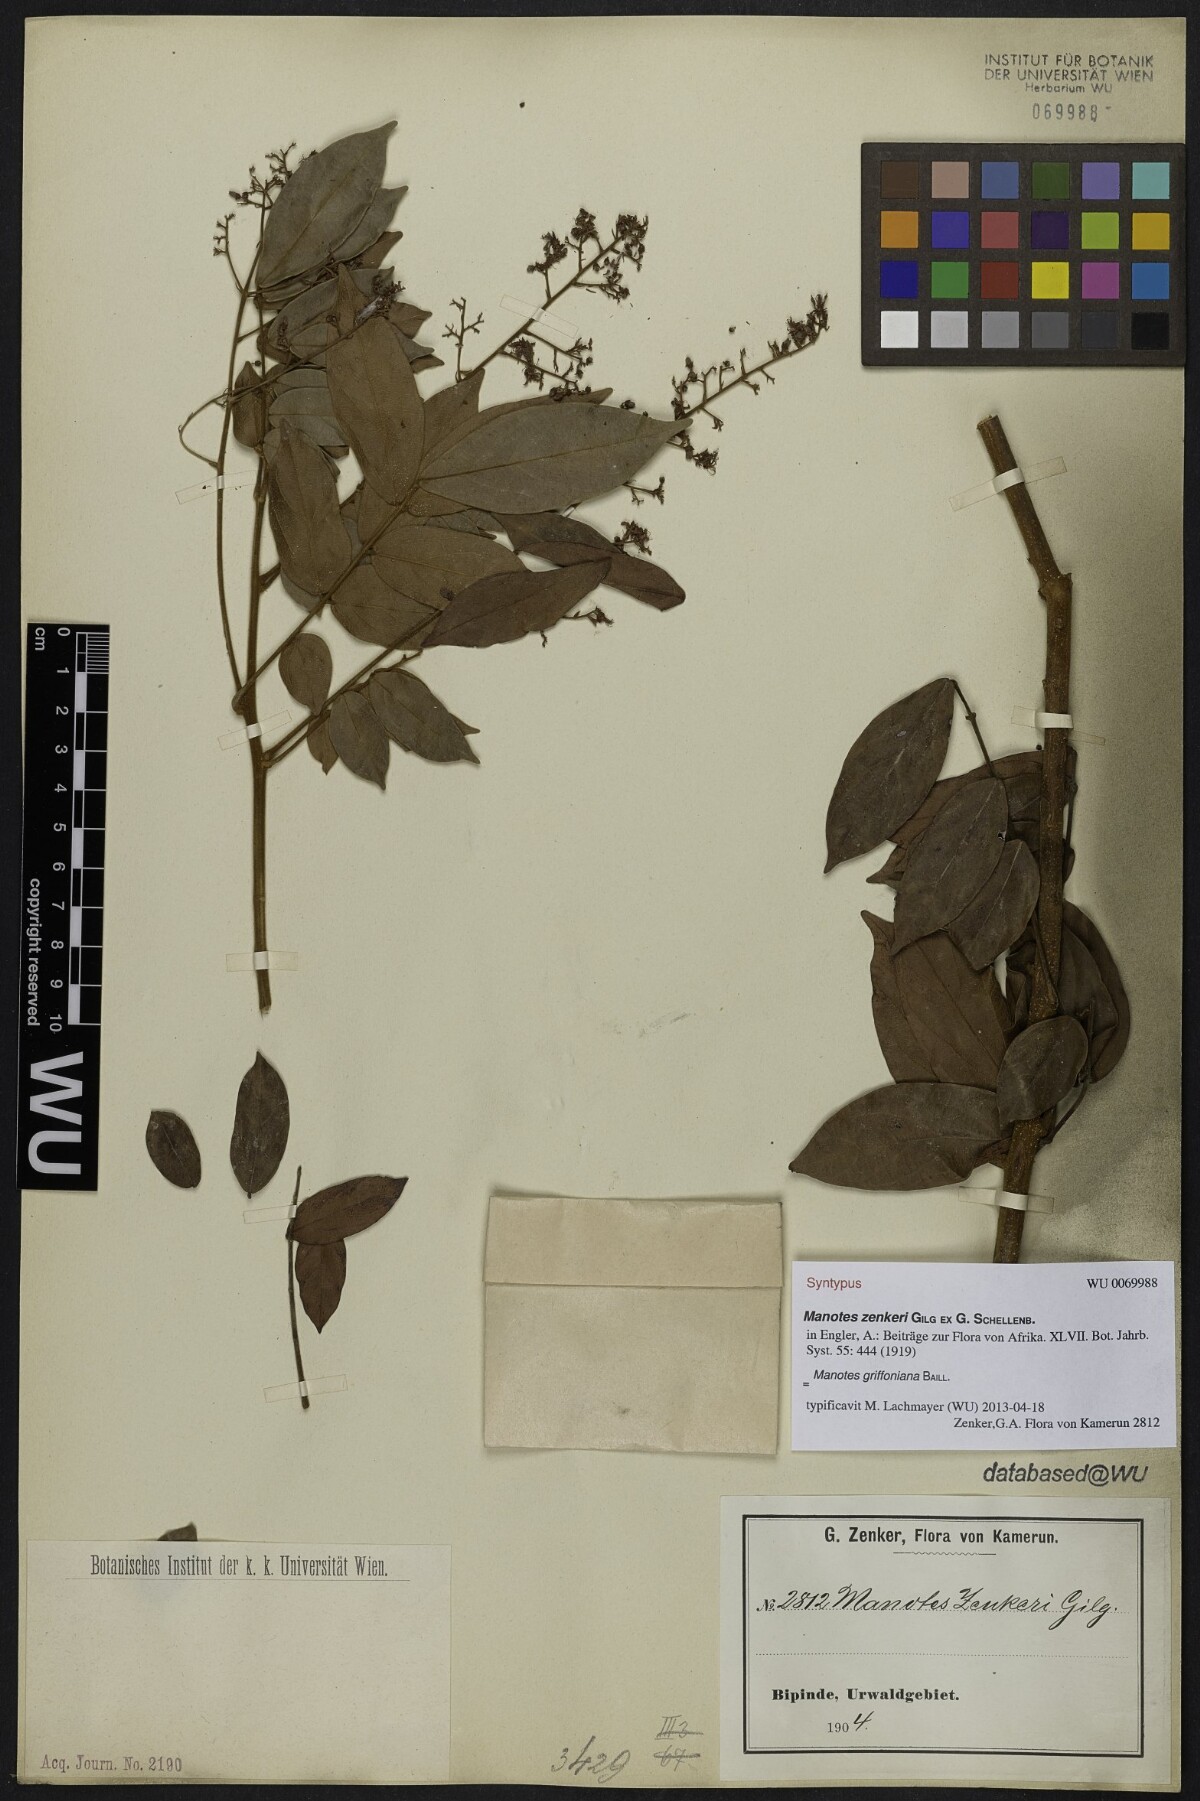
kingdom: Plantae
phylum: Tracheophyta
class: Magnoliopsida
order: Oxalidales
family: Connaraceae
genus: Manotes
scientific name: Manotes griffoniana
